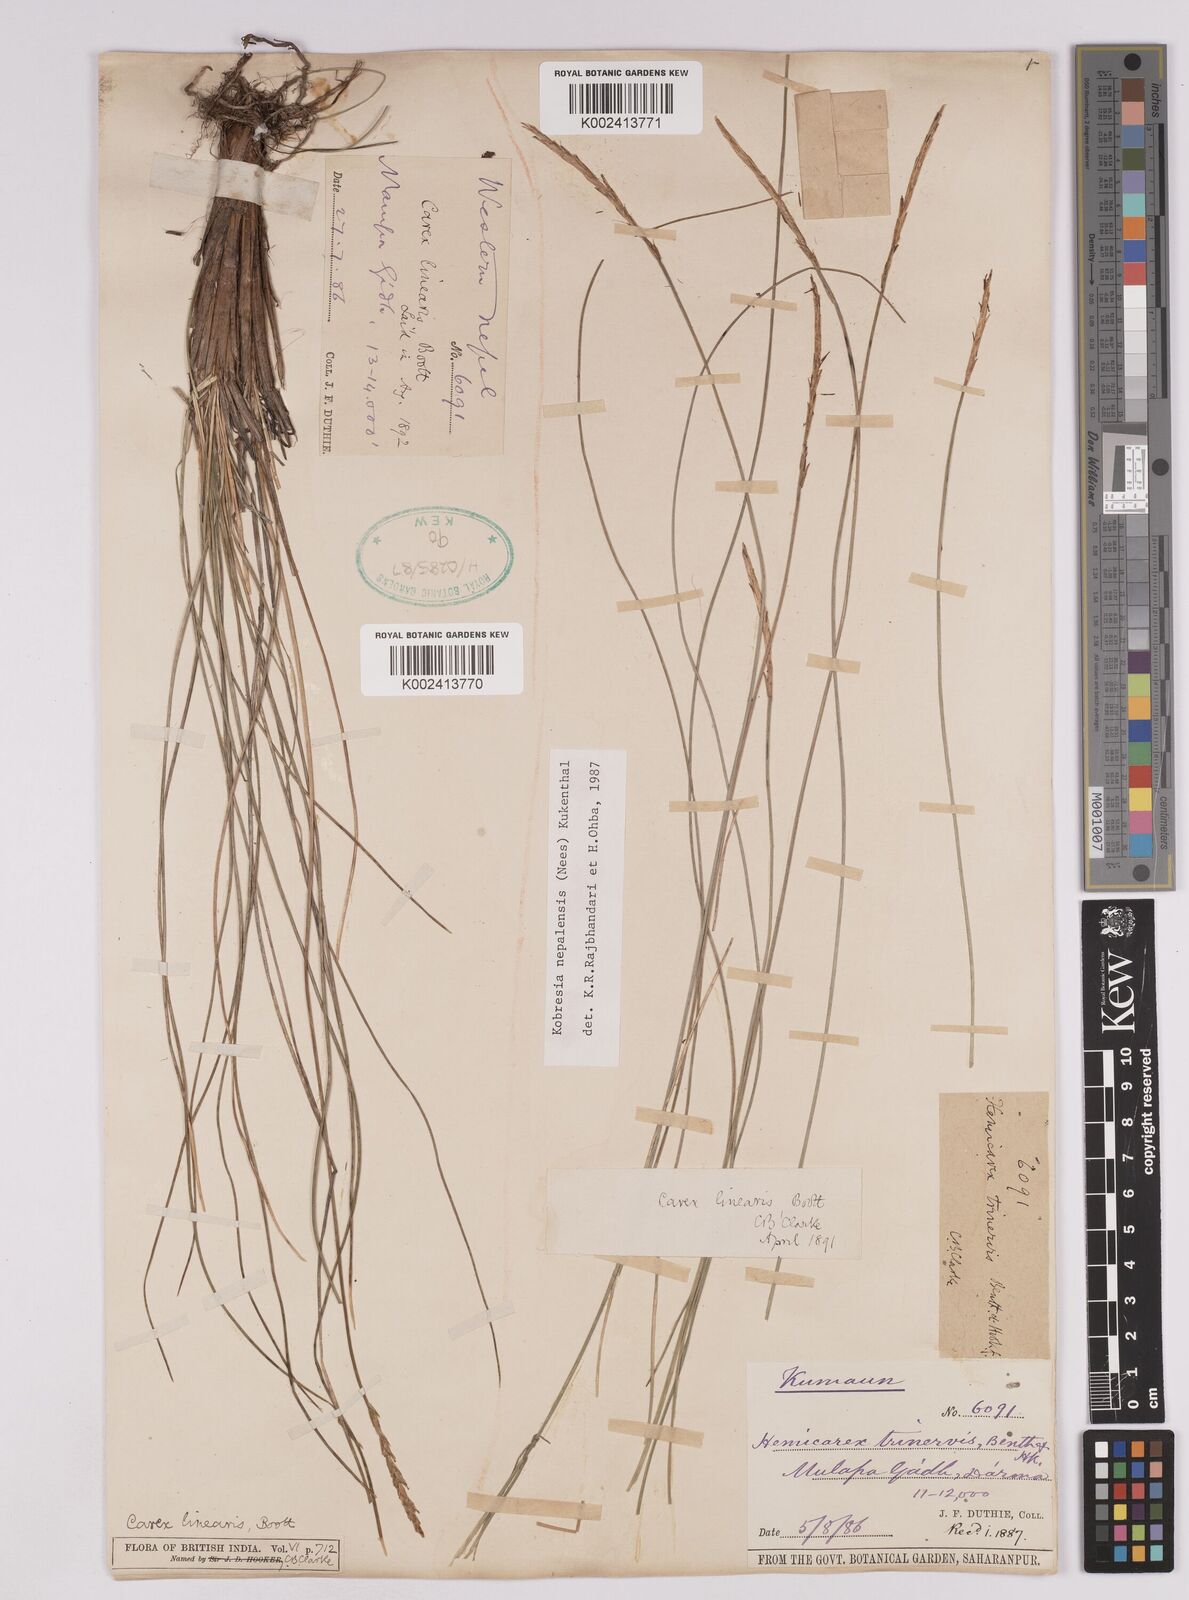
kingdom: Plantae
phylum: Tracheophyta
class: Liliopsida
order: Poales
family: Cyperaceae
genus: Carex
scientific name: Carex esenbeckii
